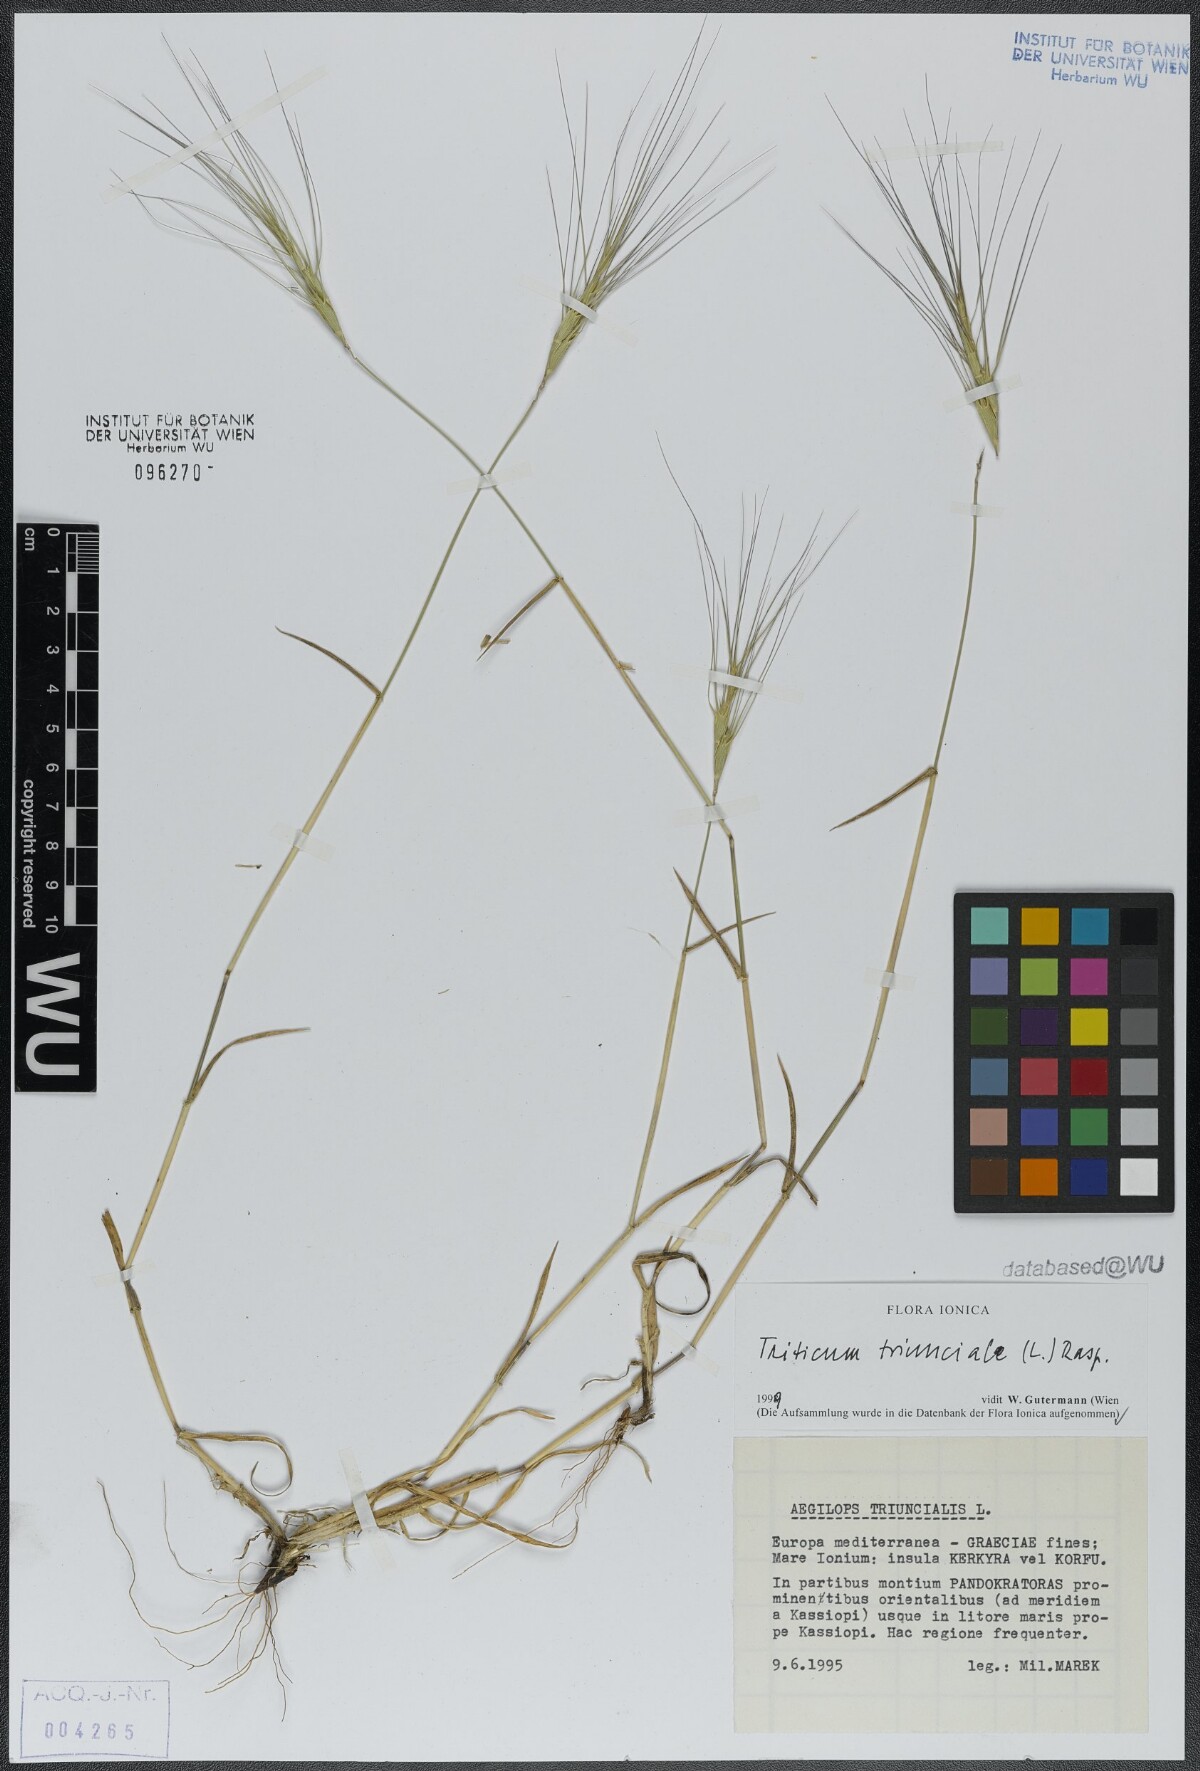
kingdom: Plantae
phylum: Tracheophyta
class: Liliopsida
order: Poales
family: Poaceae
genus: Aegilops
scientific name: Aegilops triuncialis
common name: Barb goat grass
